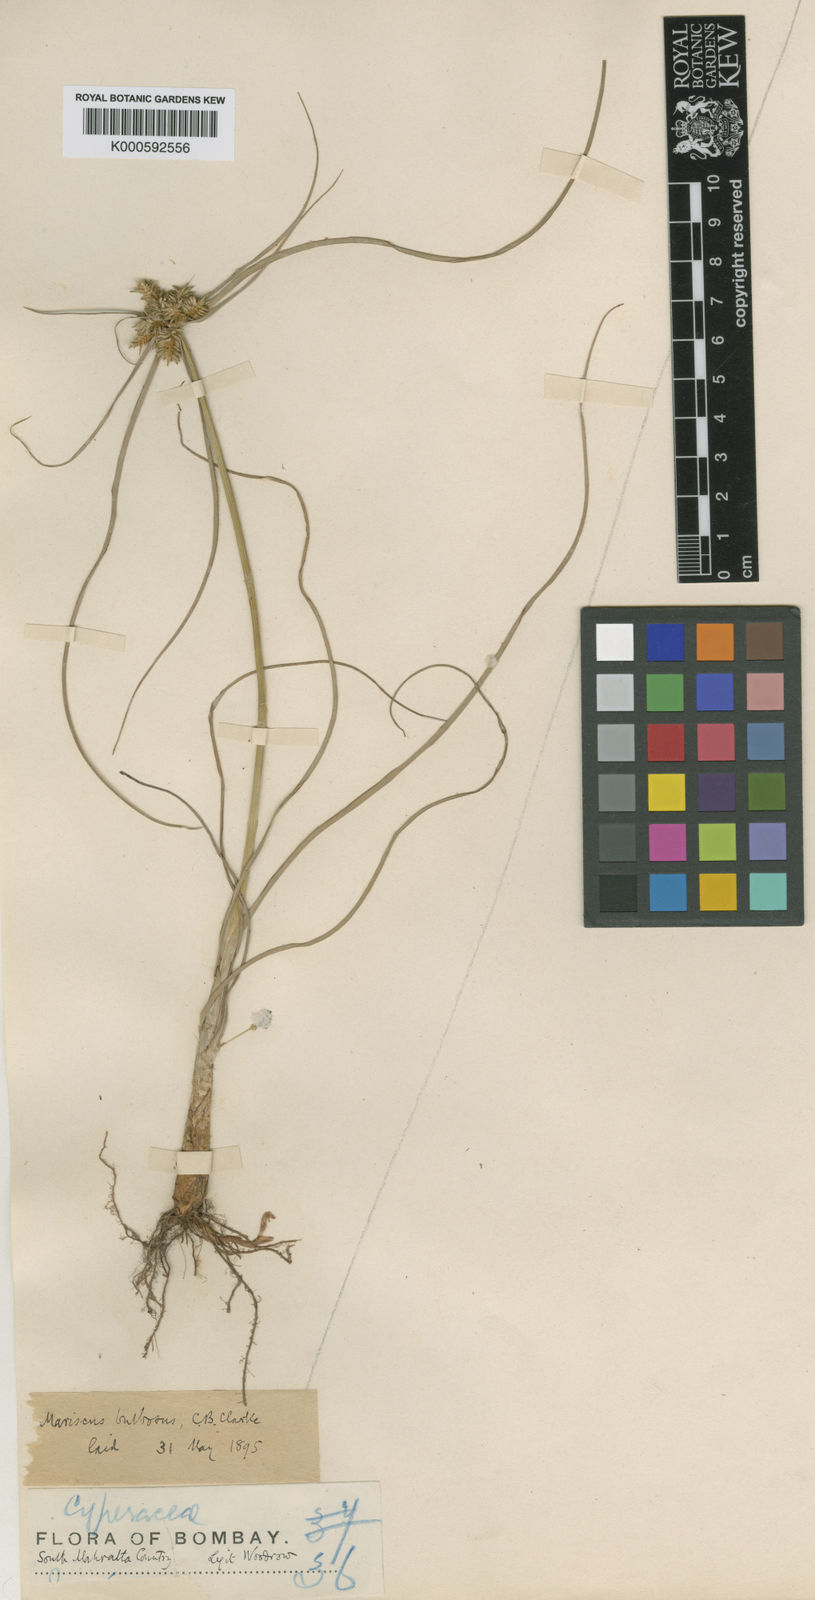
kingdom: Plantae
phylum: Tracheophyta
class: Liliopsida
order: Poales
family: Cyperaceae
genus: Cyperus
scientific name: Cyperus clarkei
